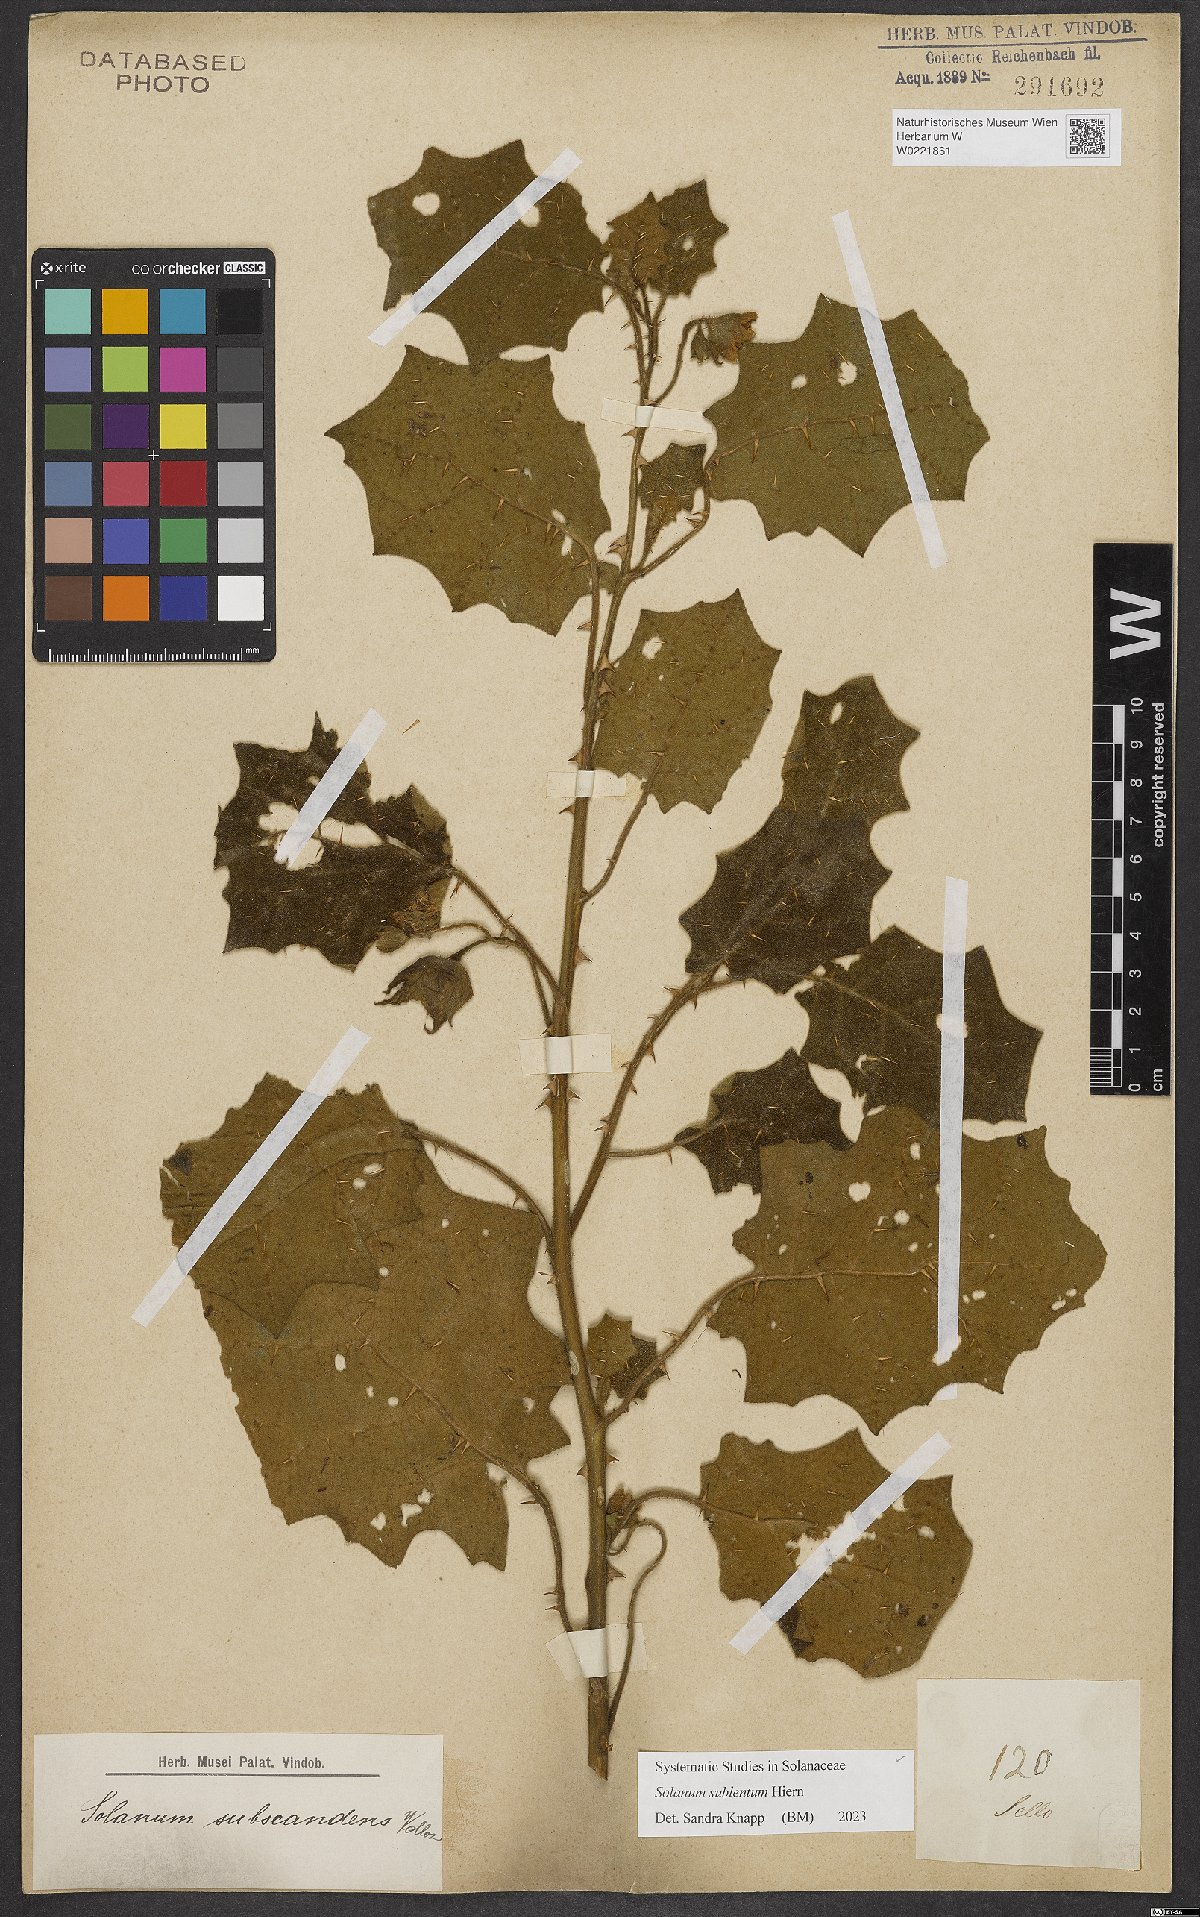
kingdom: Plantae
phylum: Tracheophyta
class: Magnoliopsida
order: Solanales
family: Solanaceae
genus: Solanum
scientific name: Solanum sublentum
